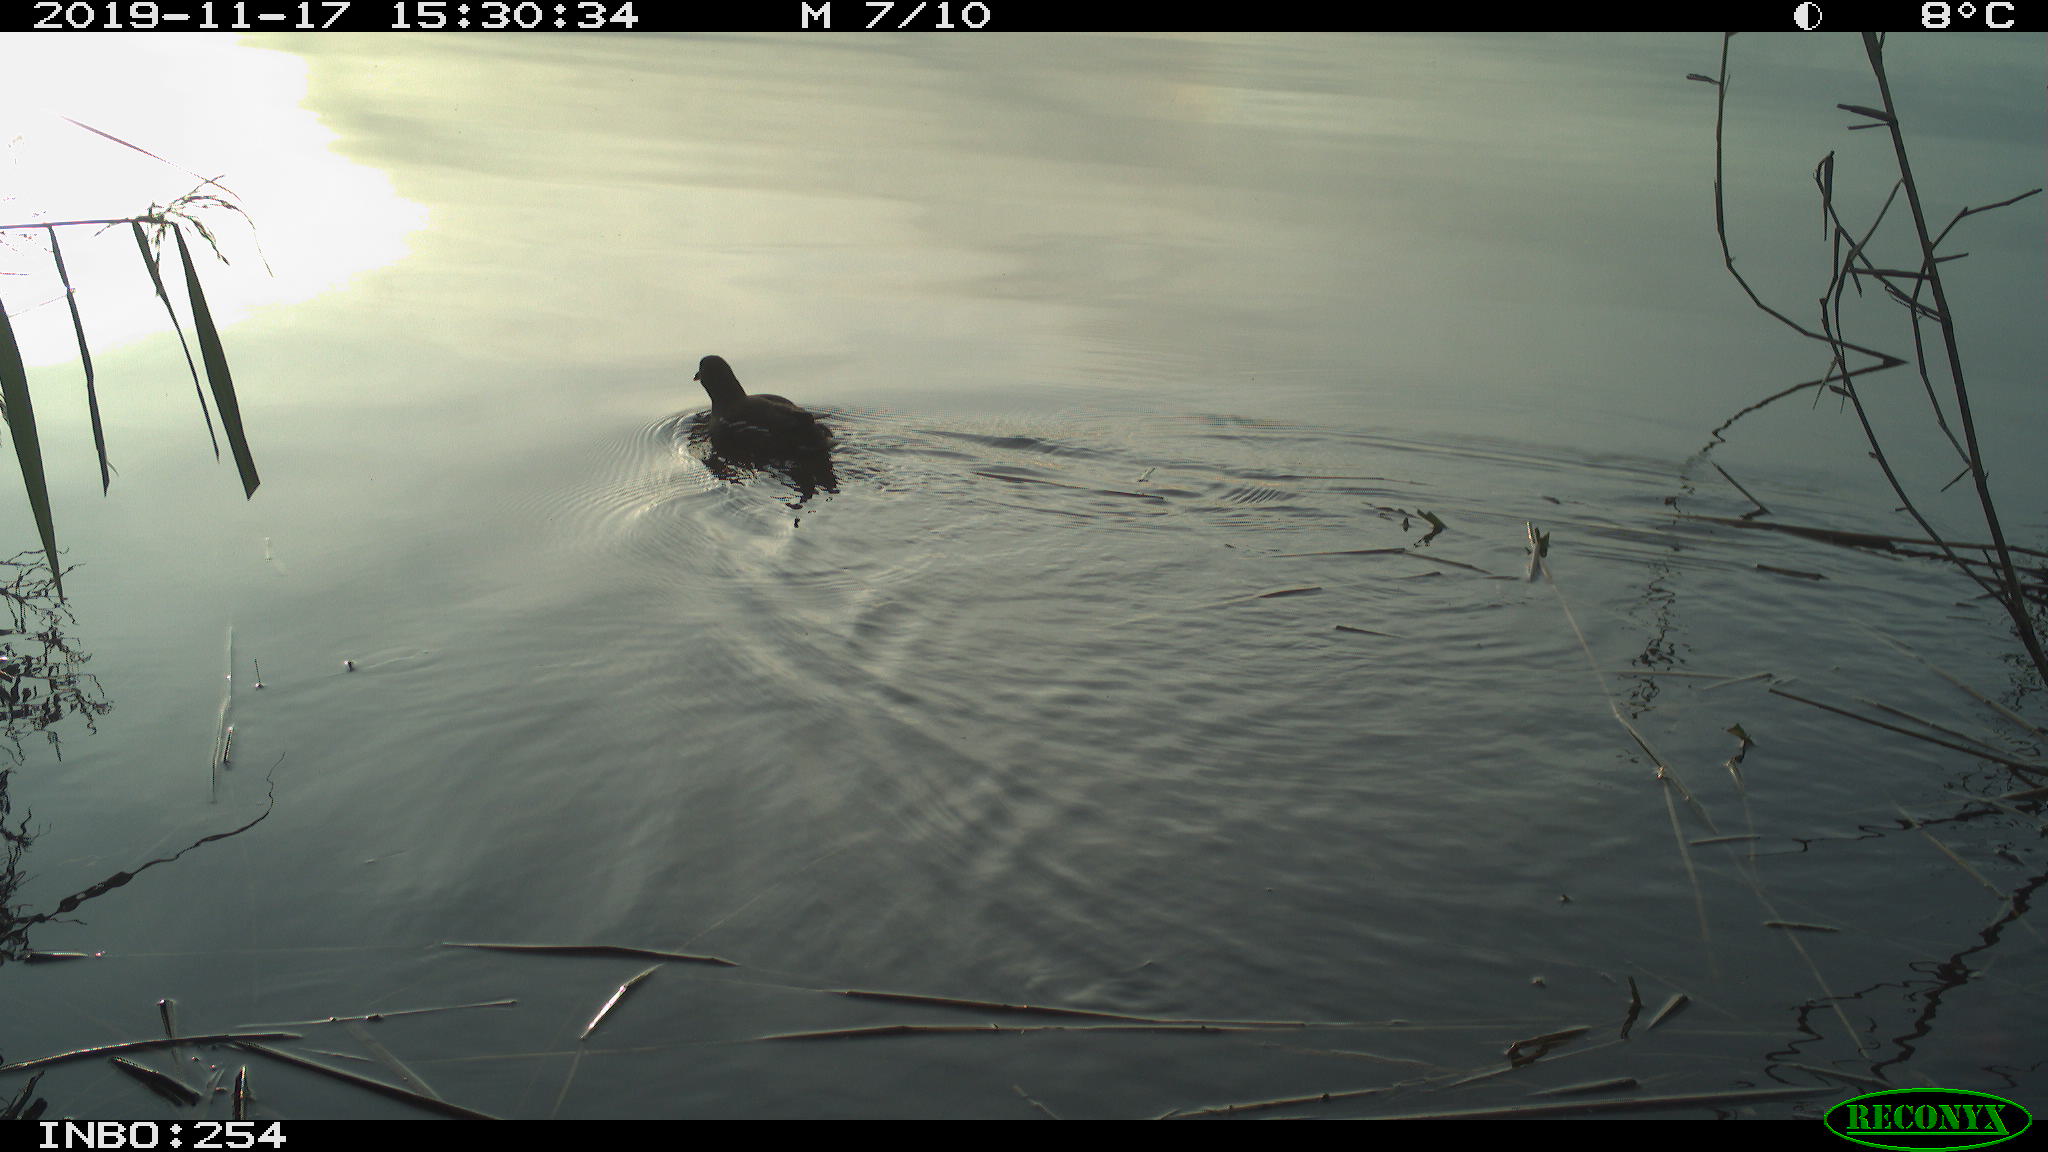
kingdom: Animalia
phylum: Chordata
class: Aves
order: Gruiformes
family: Rallidae
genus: Gallinula
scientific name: Gallinula chloropus
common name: Common moorhen
